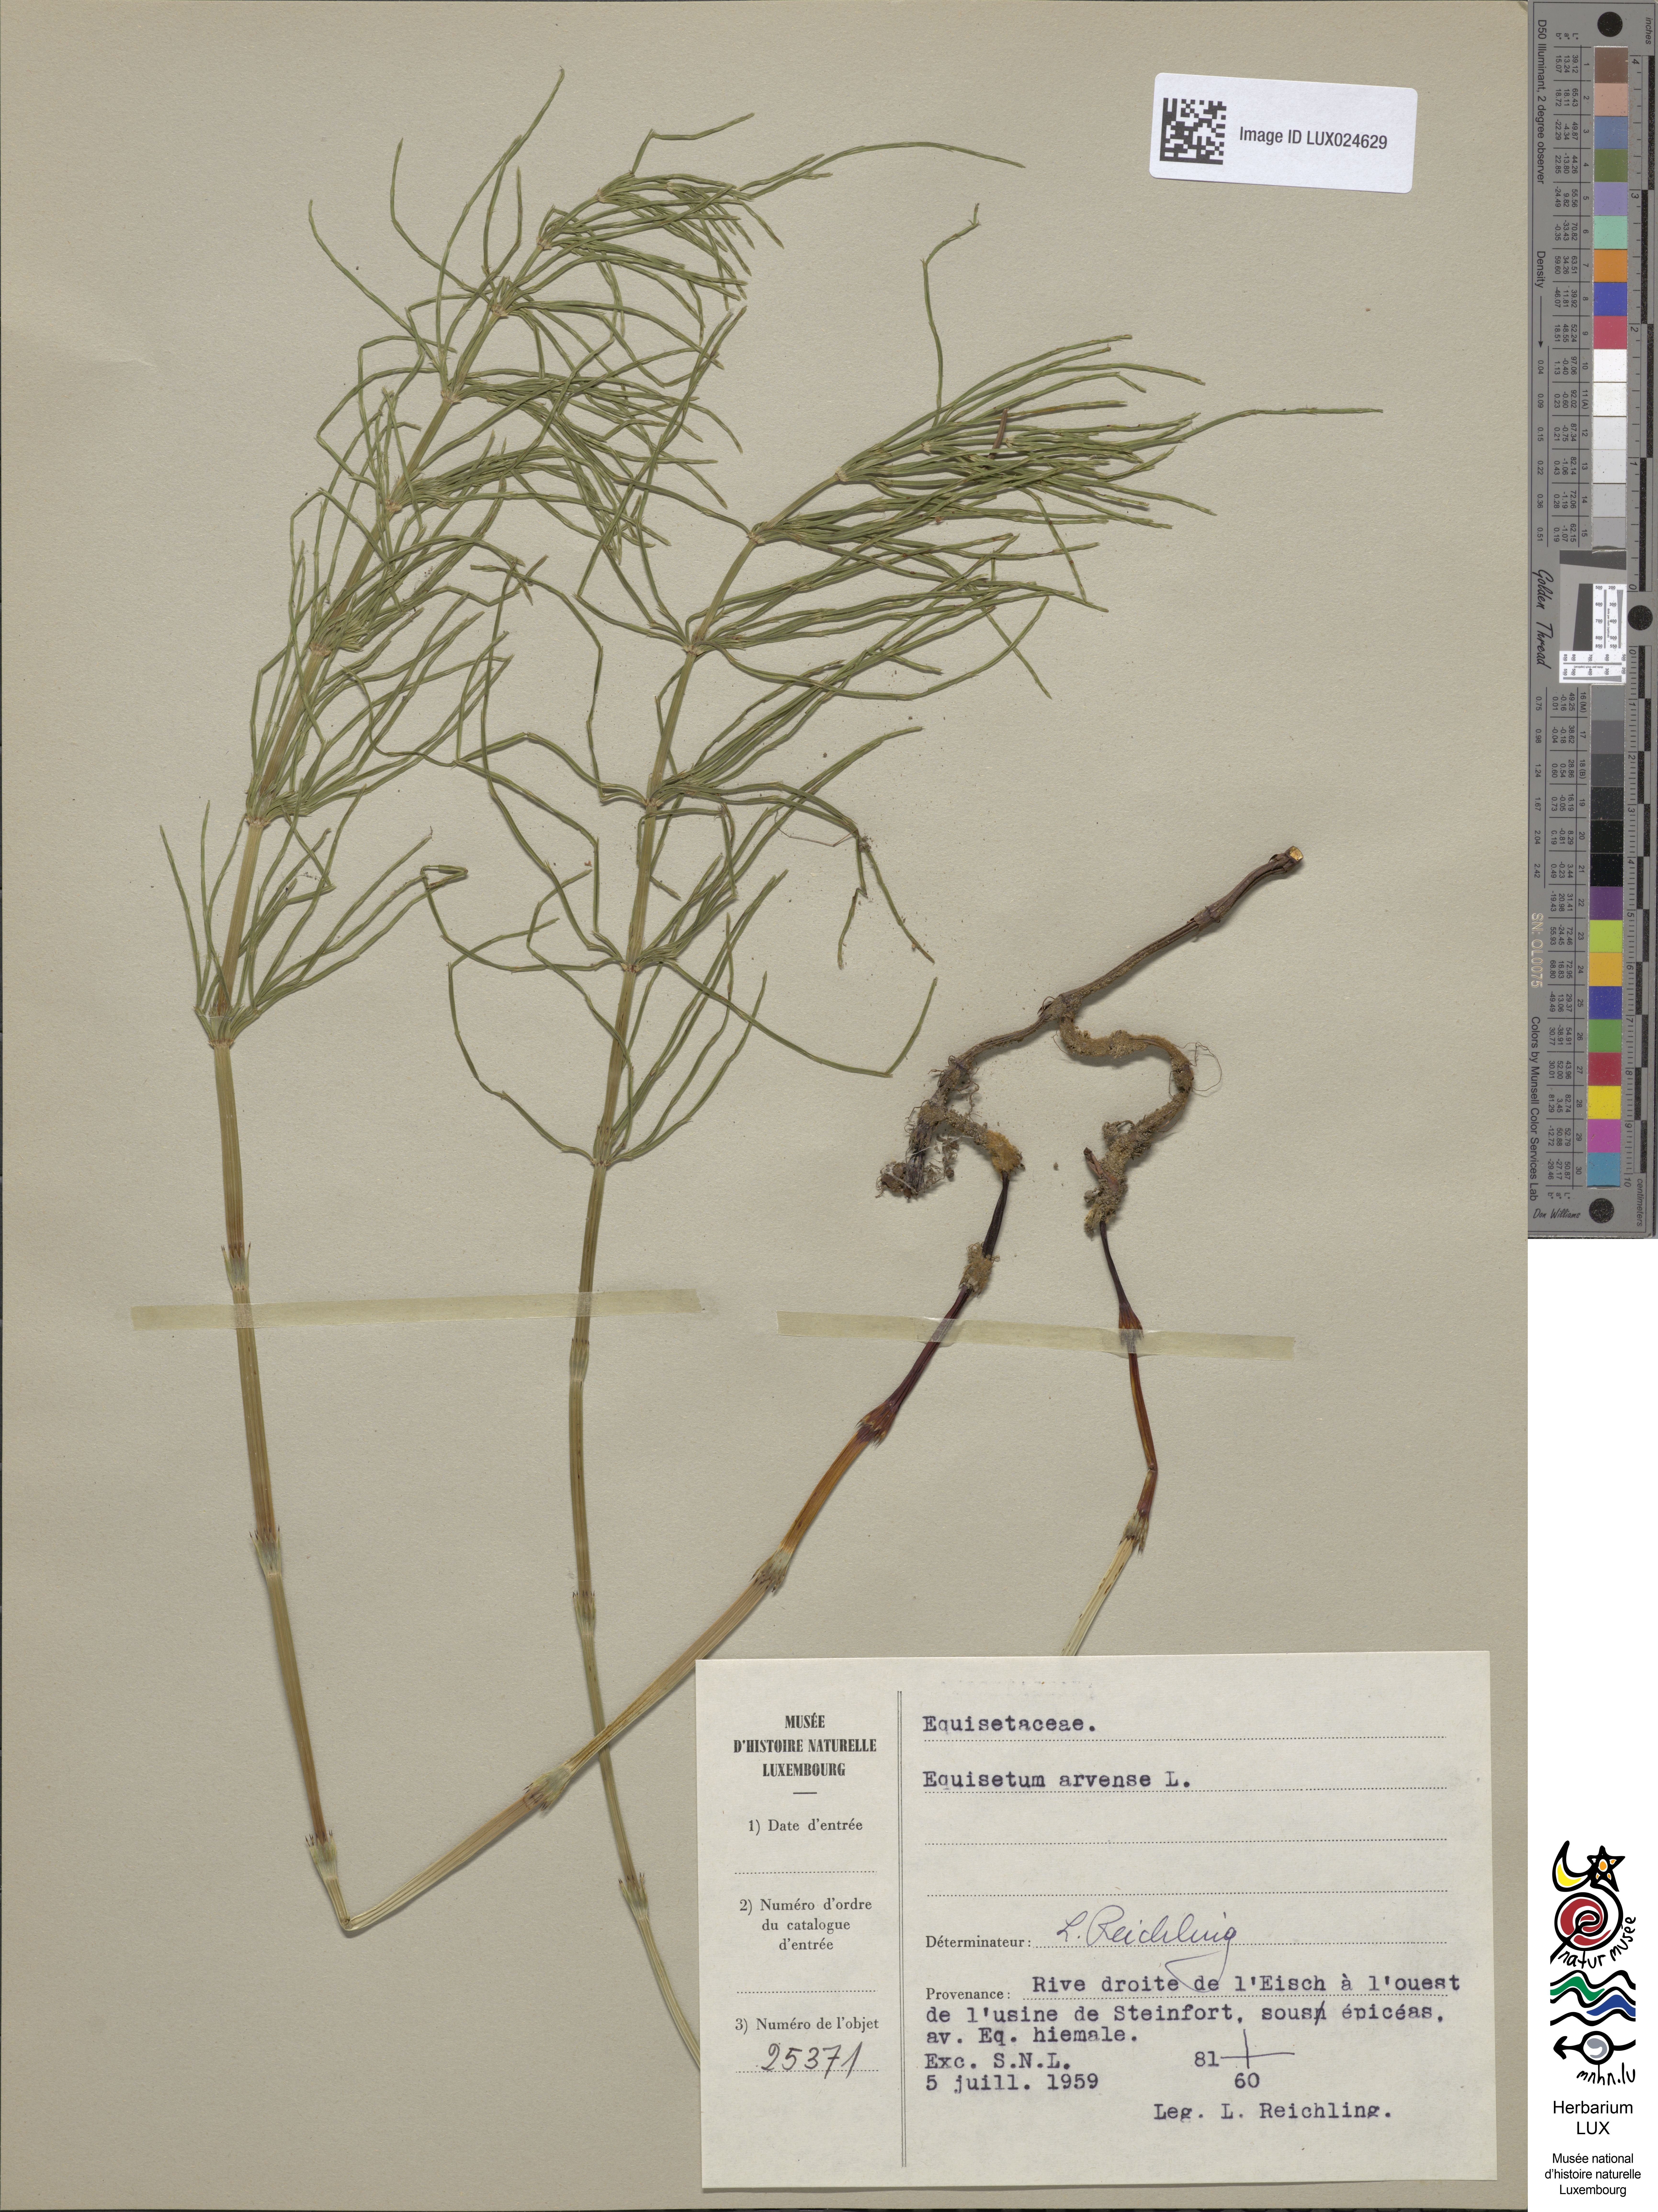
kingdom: Plantae
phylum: Tracheophyta
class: Polypodiopsida
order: Equisetales
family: Equisetaceae
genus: Equisetum
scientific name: Equisetum arvense
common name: Field horsetail
